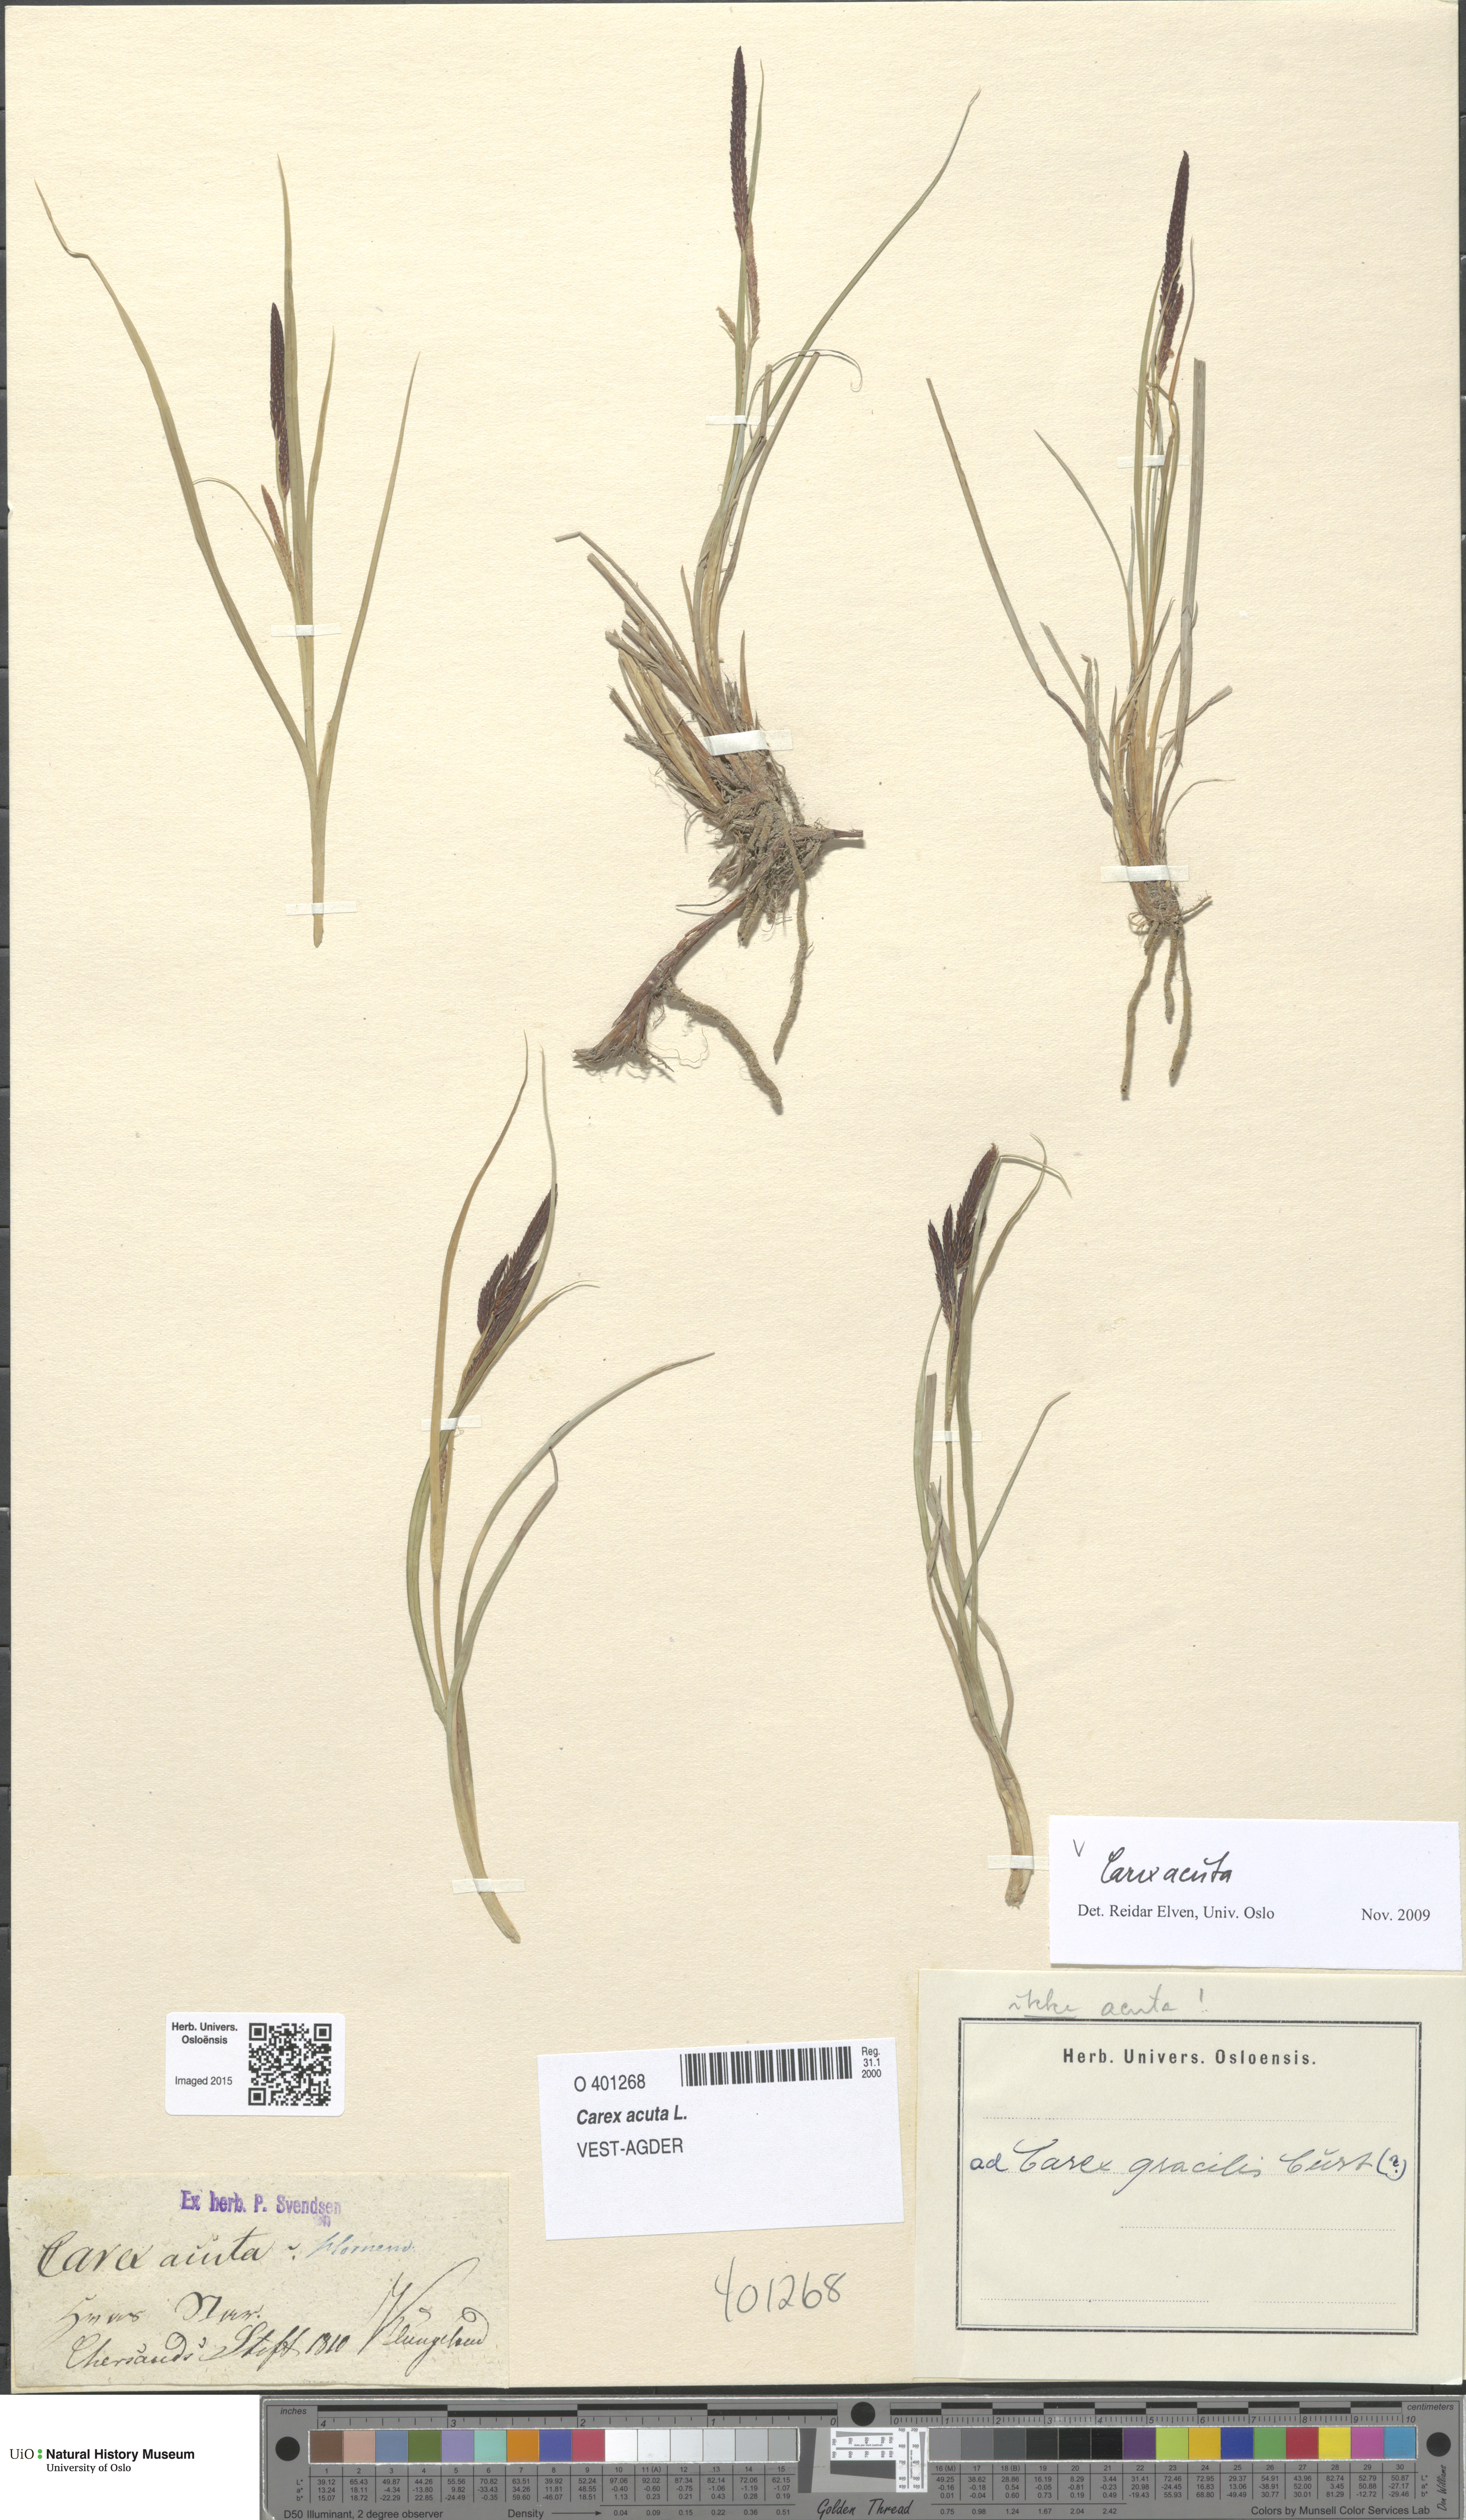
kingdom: Plantae
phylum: Tracheophyta
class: Liliopsida
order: Poales
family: Cyperaceae
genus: Carex
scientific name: Carex acuta
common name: Slender tufted-sedge
